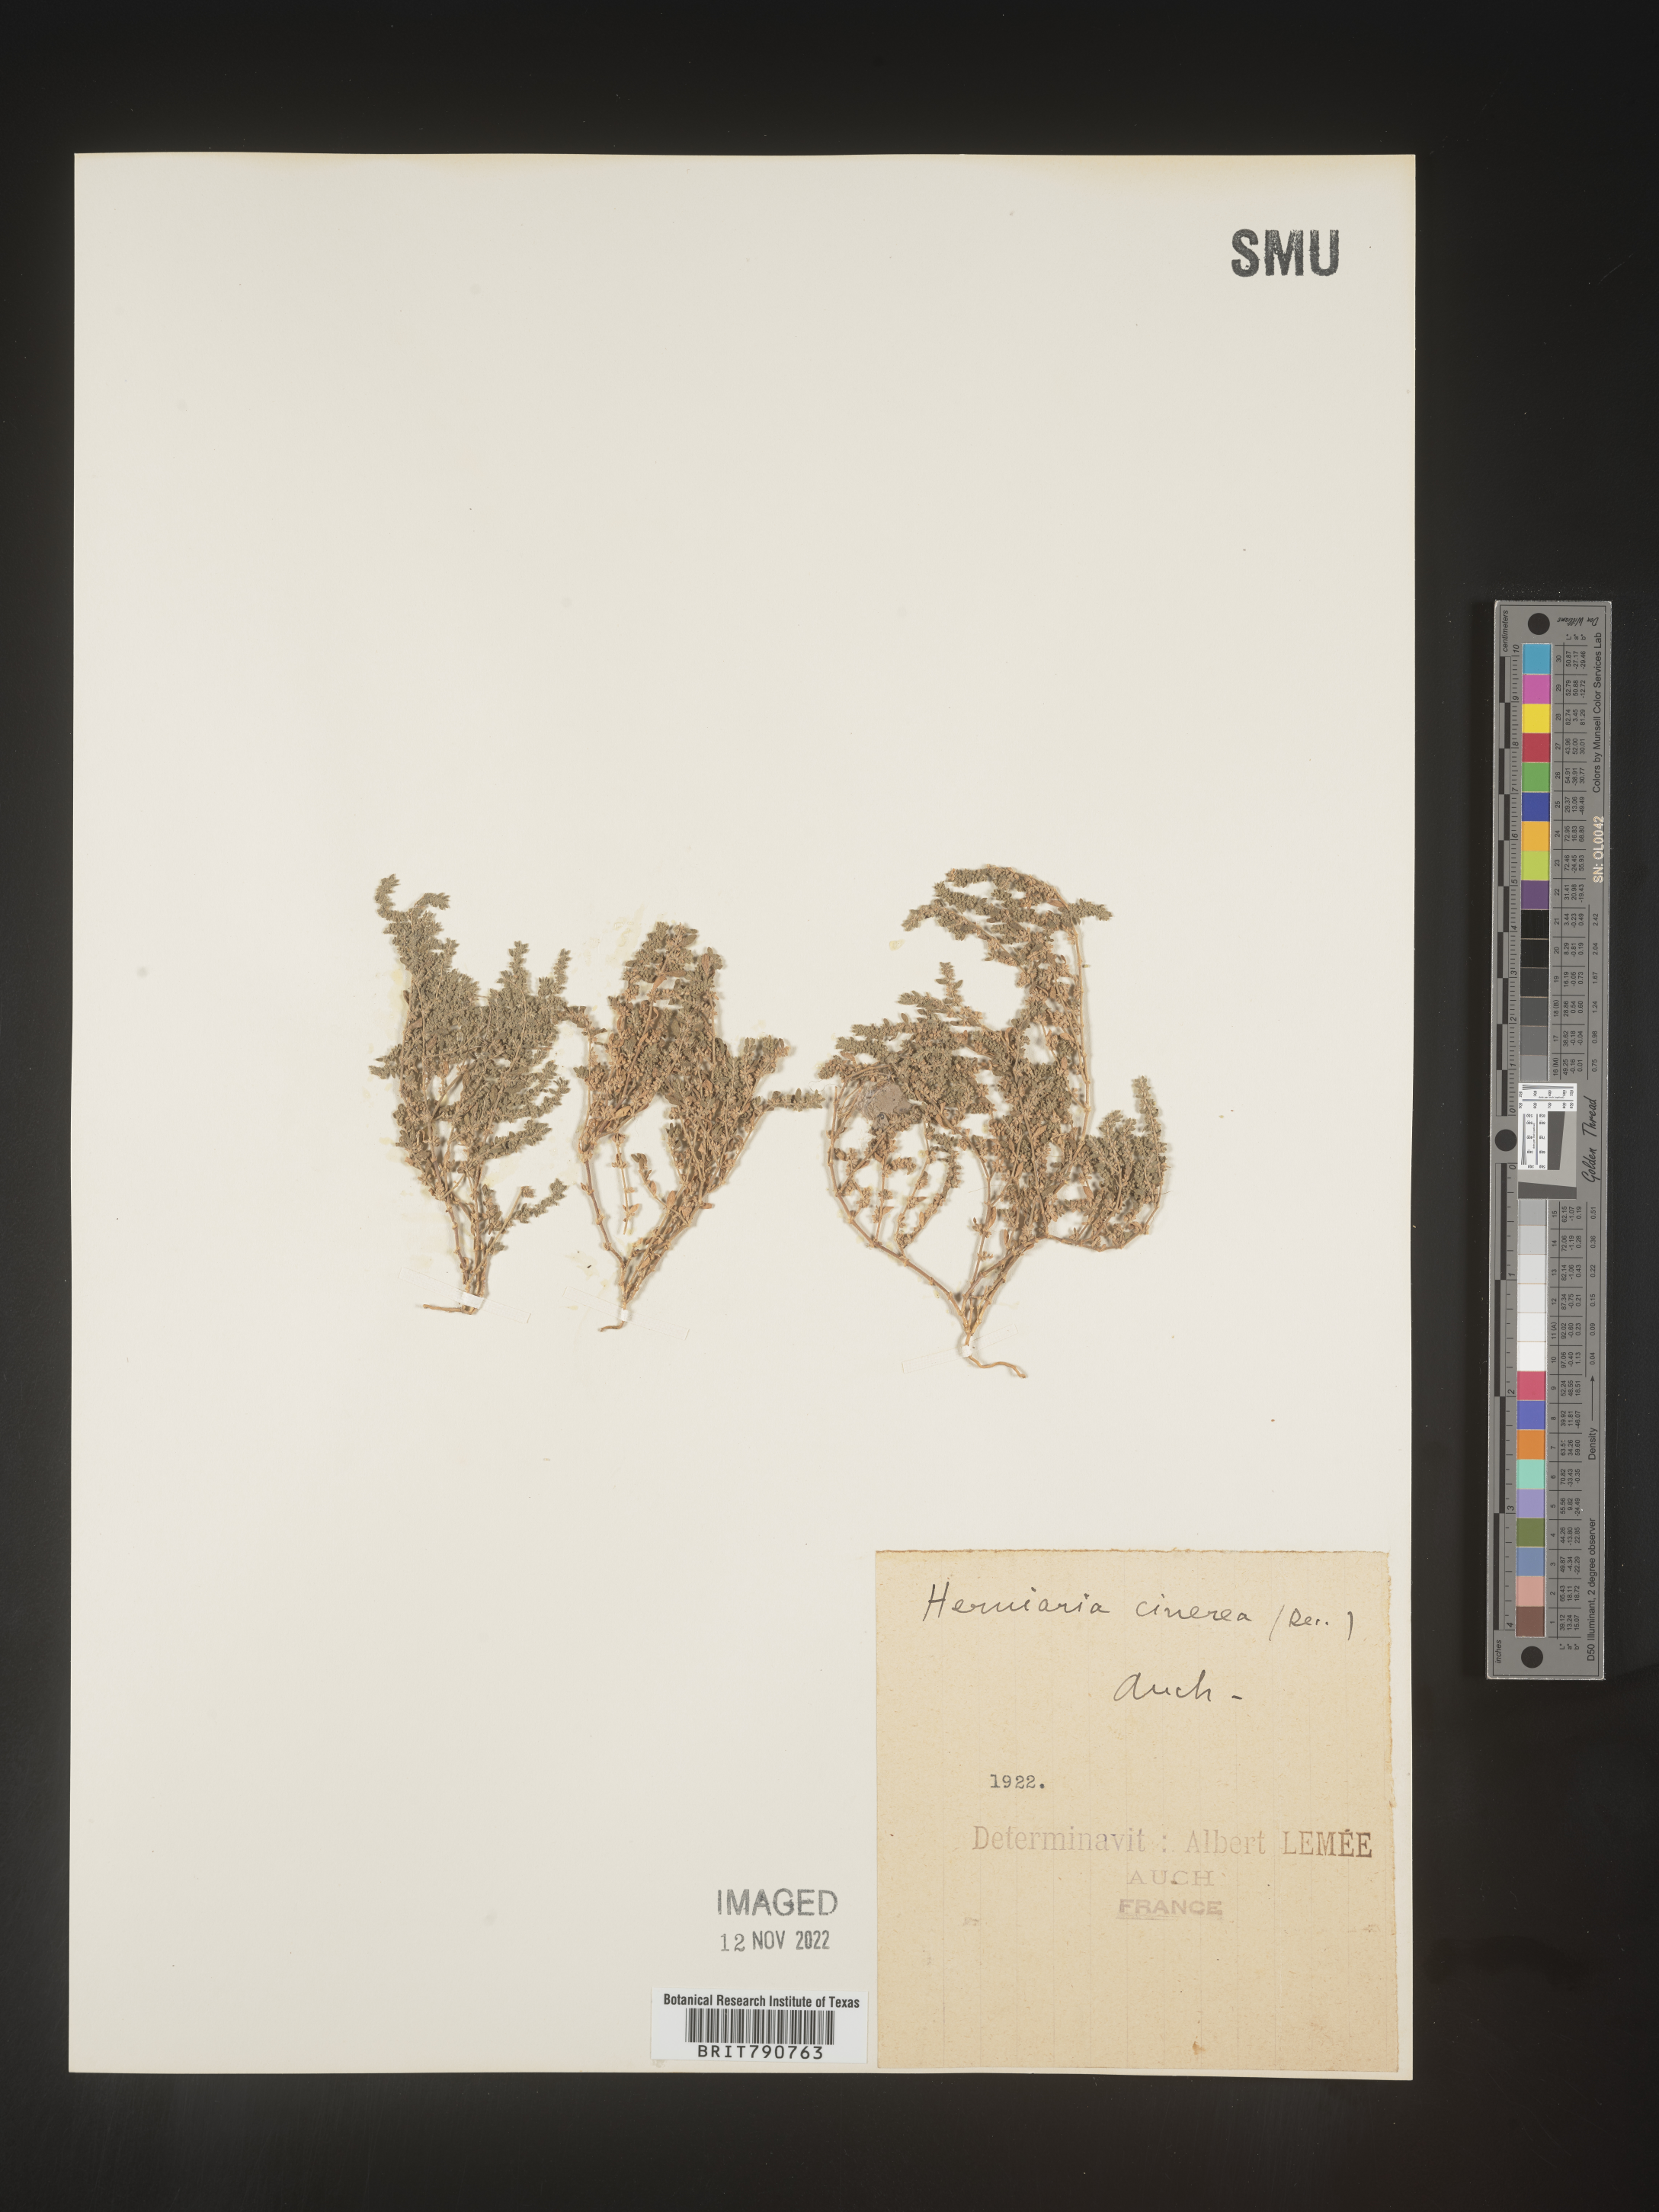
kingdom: Plantae
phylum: Tracheophyta
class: Magnoliopsida
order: Caryophyllales
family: Caryophyllaceae
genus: Herniaria
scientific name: Herniaria
